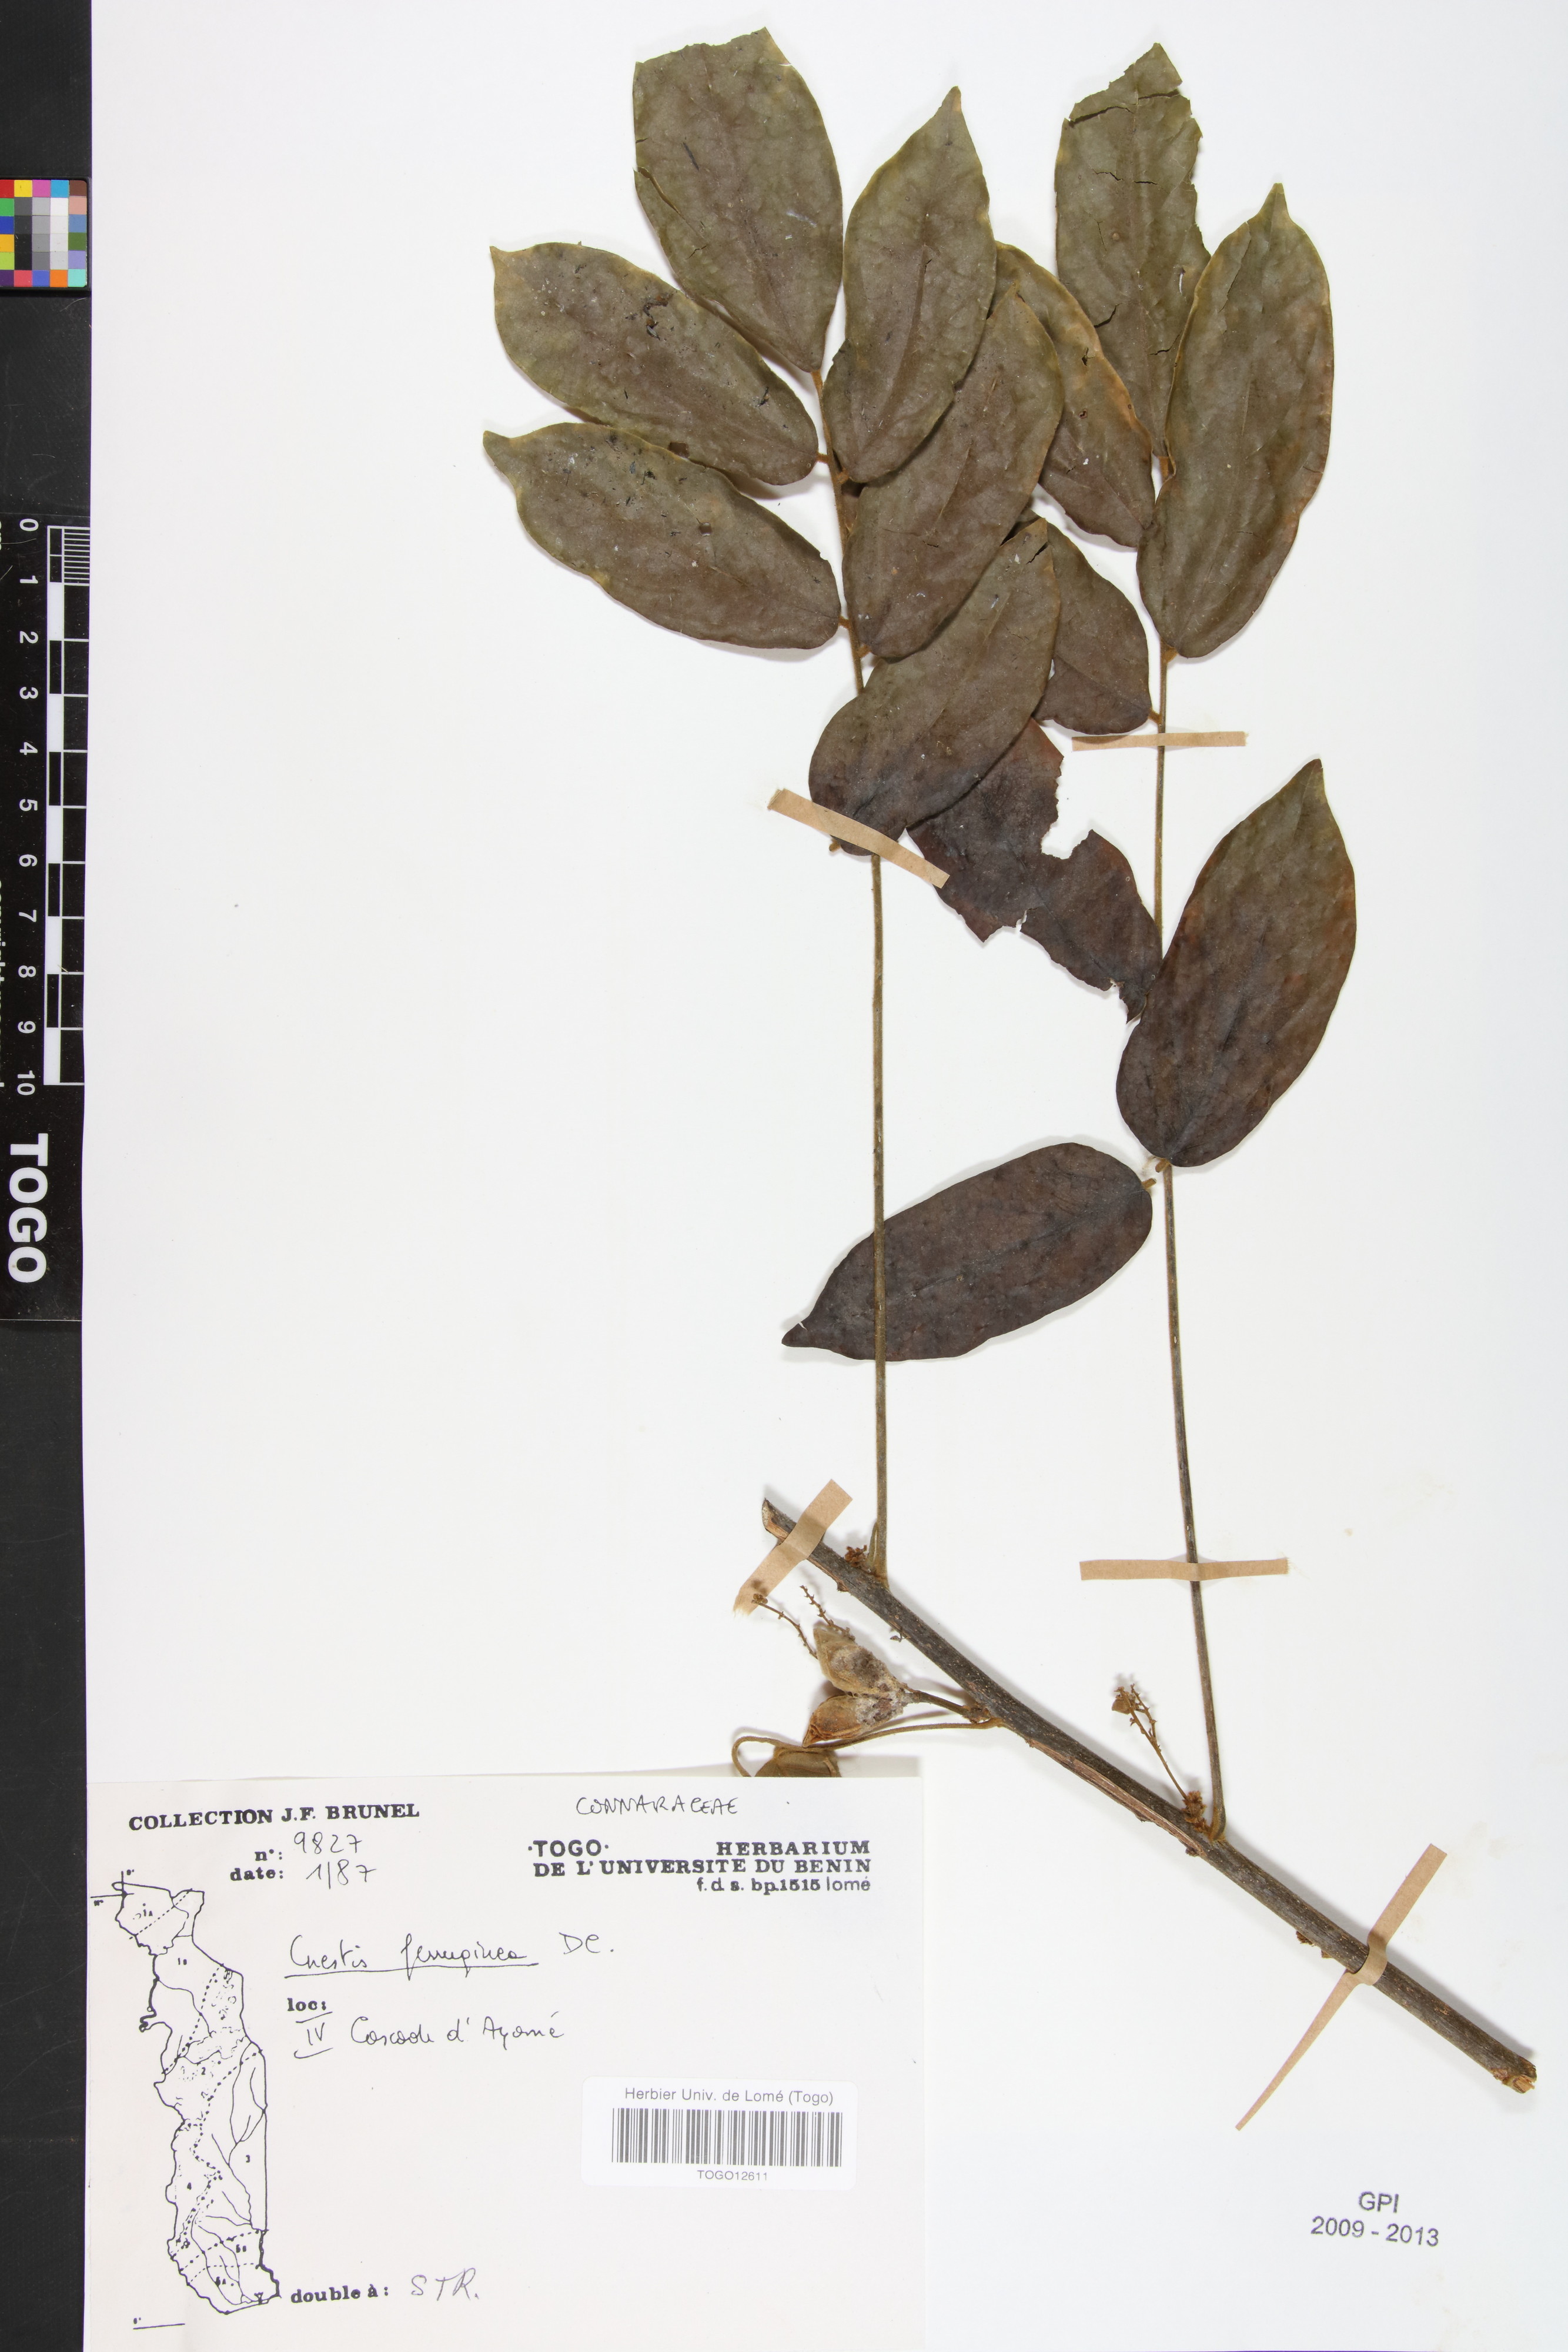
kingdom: Plantae
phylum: Tracheophyta
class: Magnoliopsida
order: Oxalidales
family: Connaraceae
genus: Cnestis
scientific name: Cnestis ferruginea
